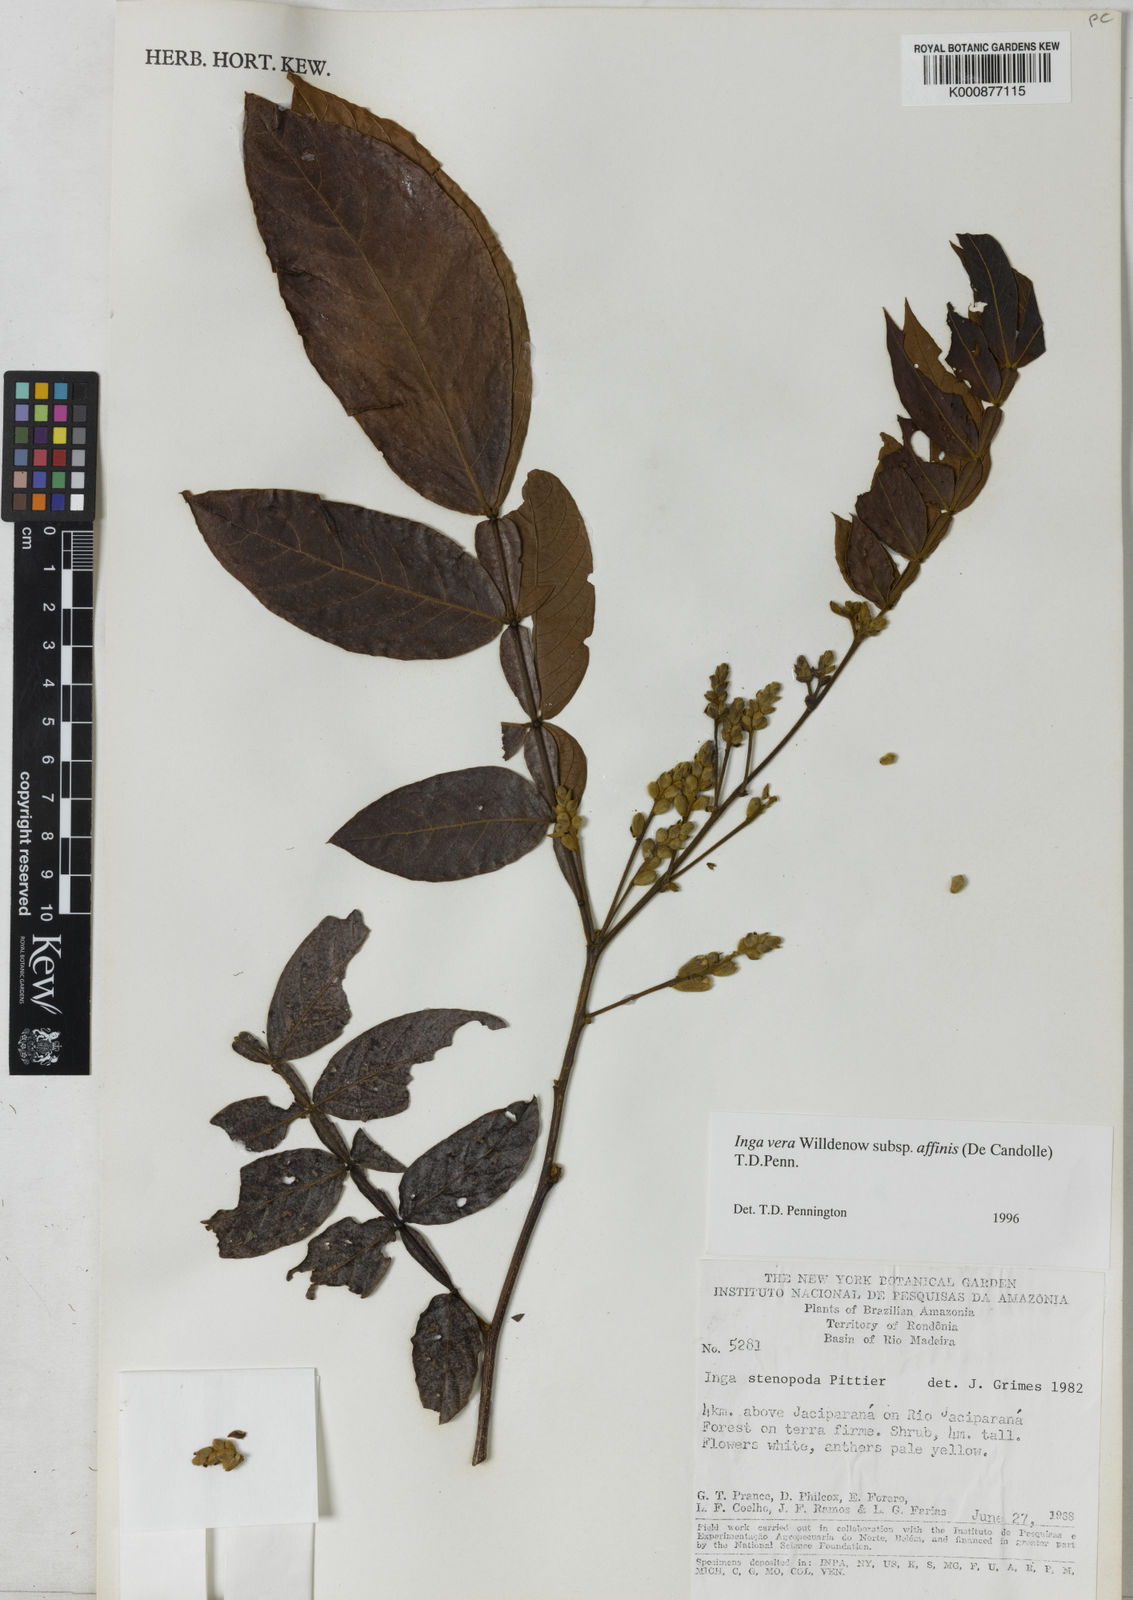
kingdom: Plantae
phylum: Tracheophyta
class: Magnoliopsida
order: Fabales
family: Fabaceae
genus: Inga
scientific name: Inga affinis
